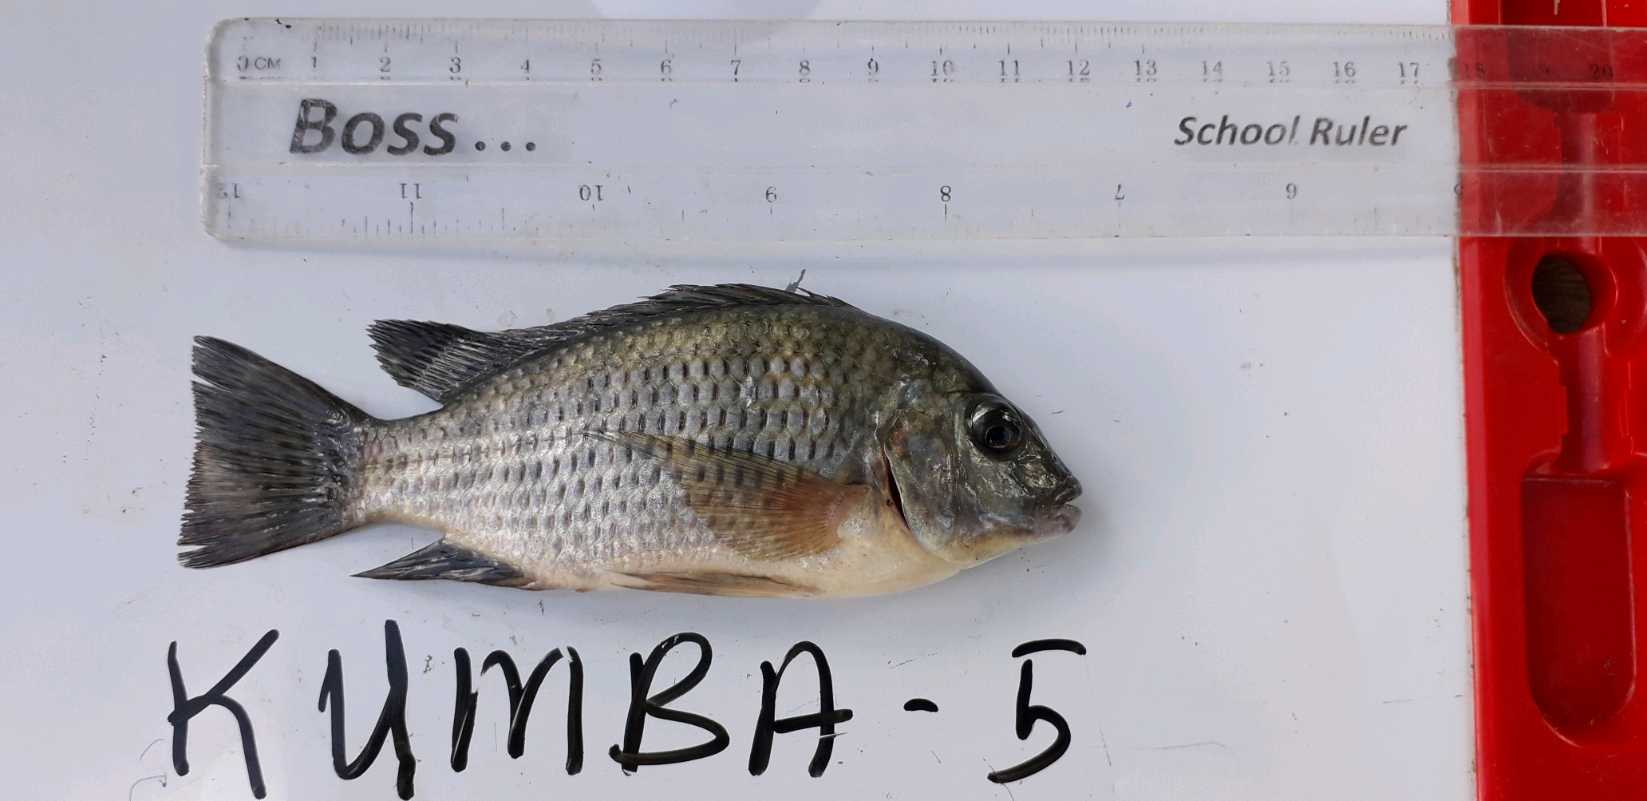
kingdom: Animalia
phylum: Chordata
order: Perciformes
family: Cichlidae
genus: Coptodon
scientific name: Coptodon rendalli
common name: Redbreast tilapia
